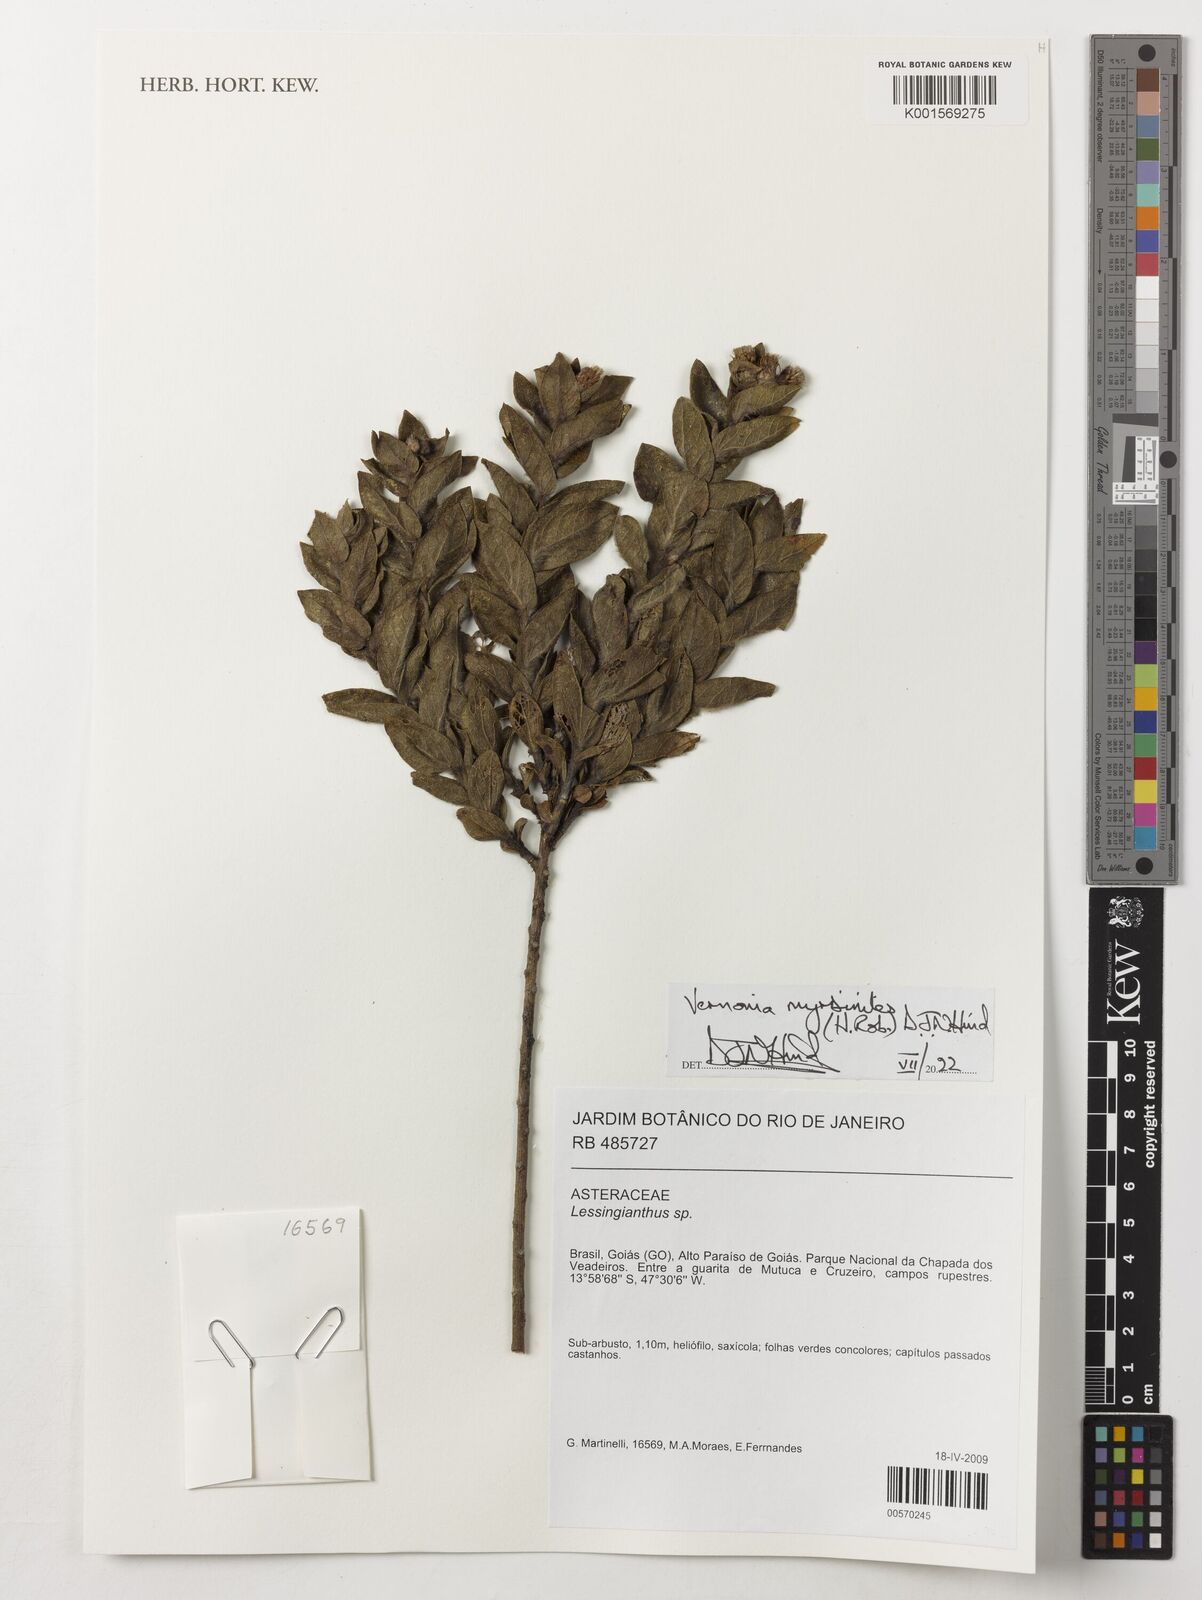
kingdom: Plantae
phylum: Tracheophyta
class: Magnoliopsida
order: Asterales
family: Asteraceae
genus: Lessingianthus
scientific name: Lessingianthus myrsinites
